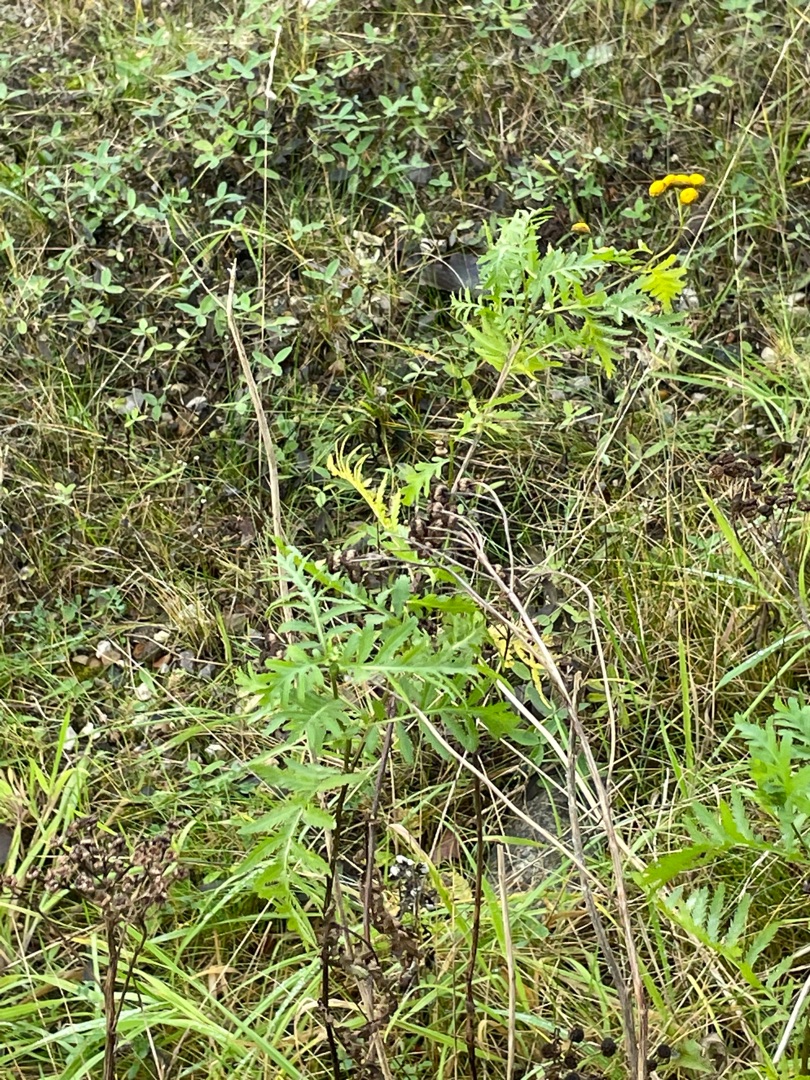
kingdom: Plantae
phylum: Tracheophyta
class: Magnoliopsida
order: Asterales
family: Asteraceae
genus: Tanacetum
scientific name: Tanacetum vulgare
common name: Rejnfan
